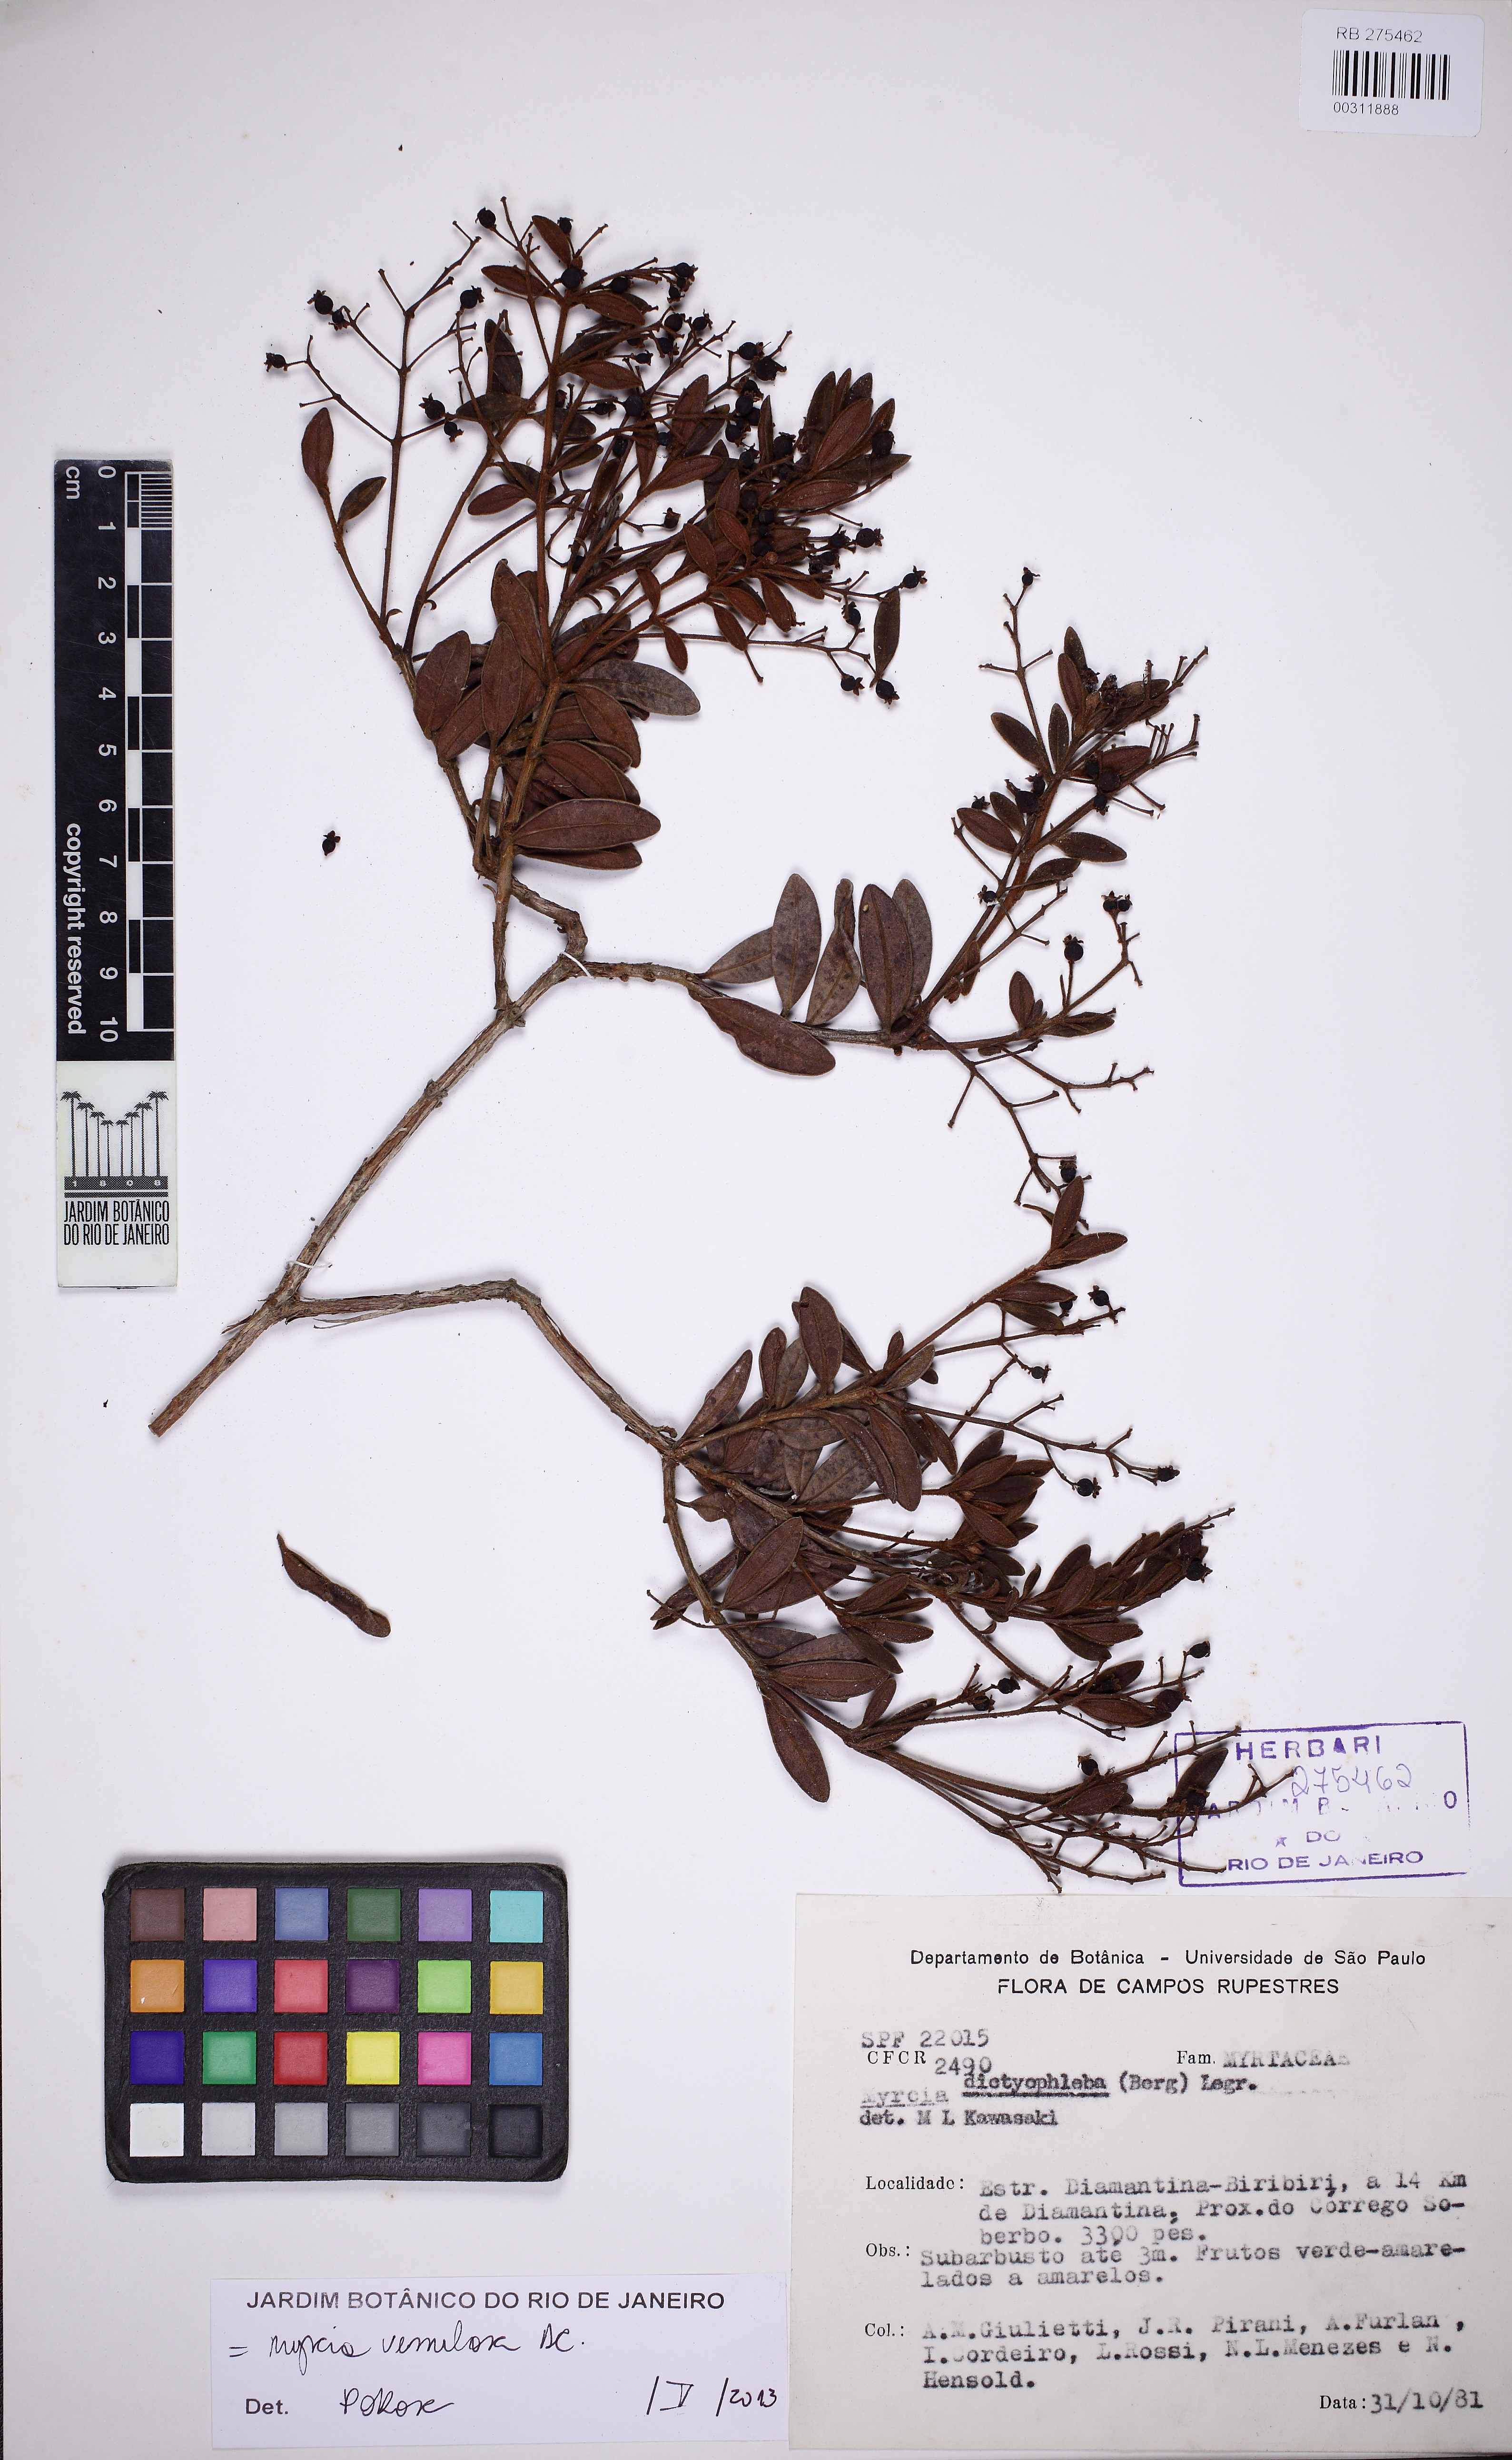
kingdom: Plantae
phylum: Tracheophyta
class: Magnoliopsida
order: Myrtales
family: Myrtaceae
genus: Myrcia
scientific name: Myrcia rufipes
